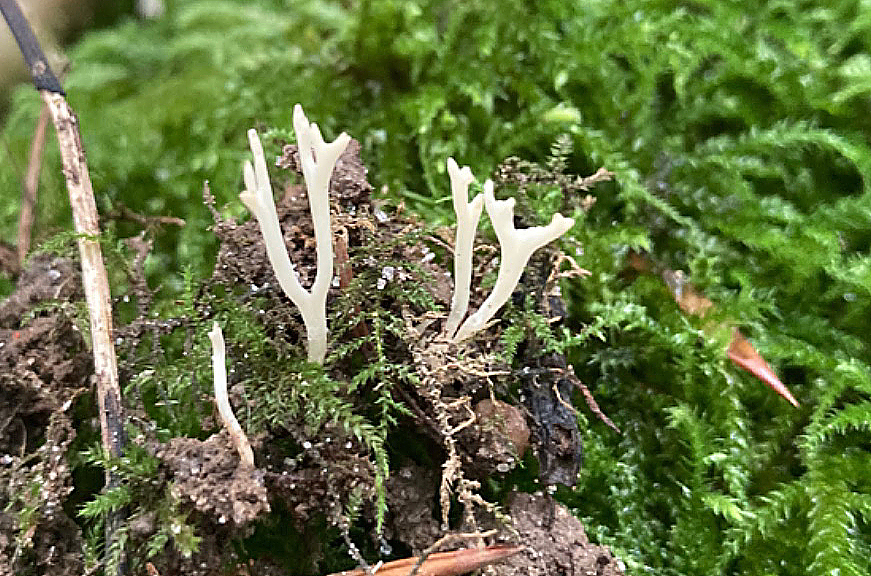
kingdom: Fungi
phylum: Basidiomycota
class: Agaricomycetes
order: Agaricales
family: Clavariaceae
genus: Ramariopsis
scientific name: Ramariopsis bispora
